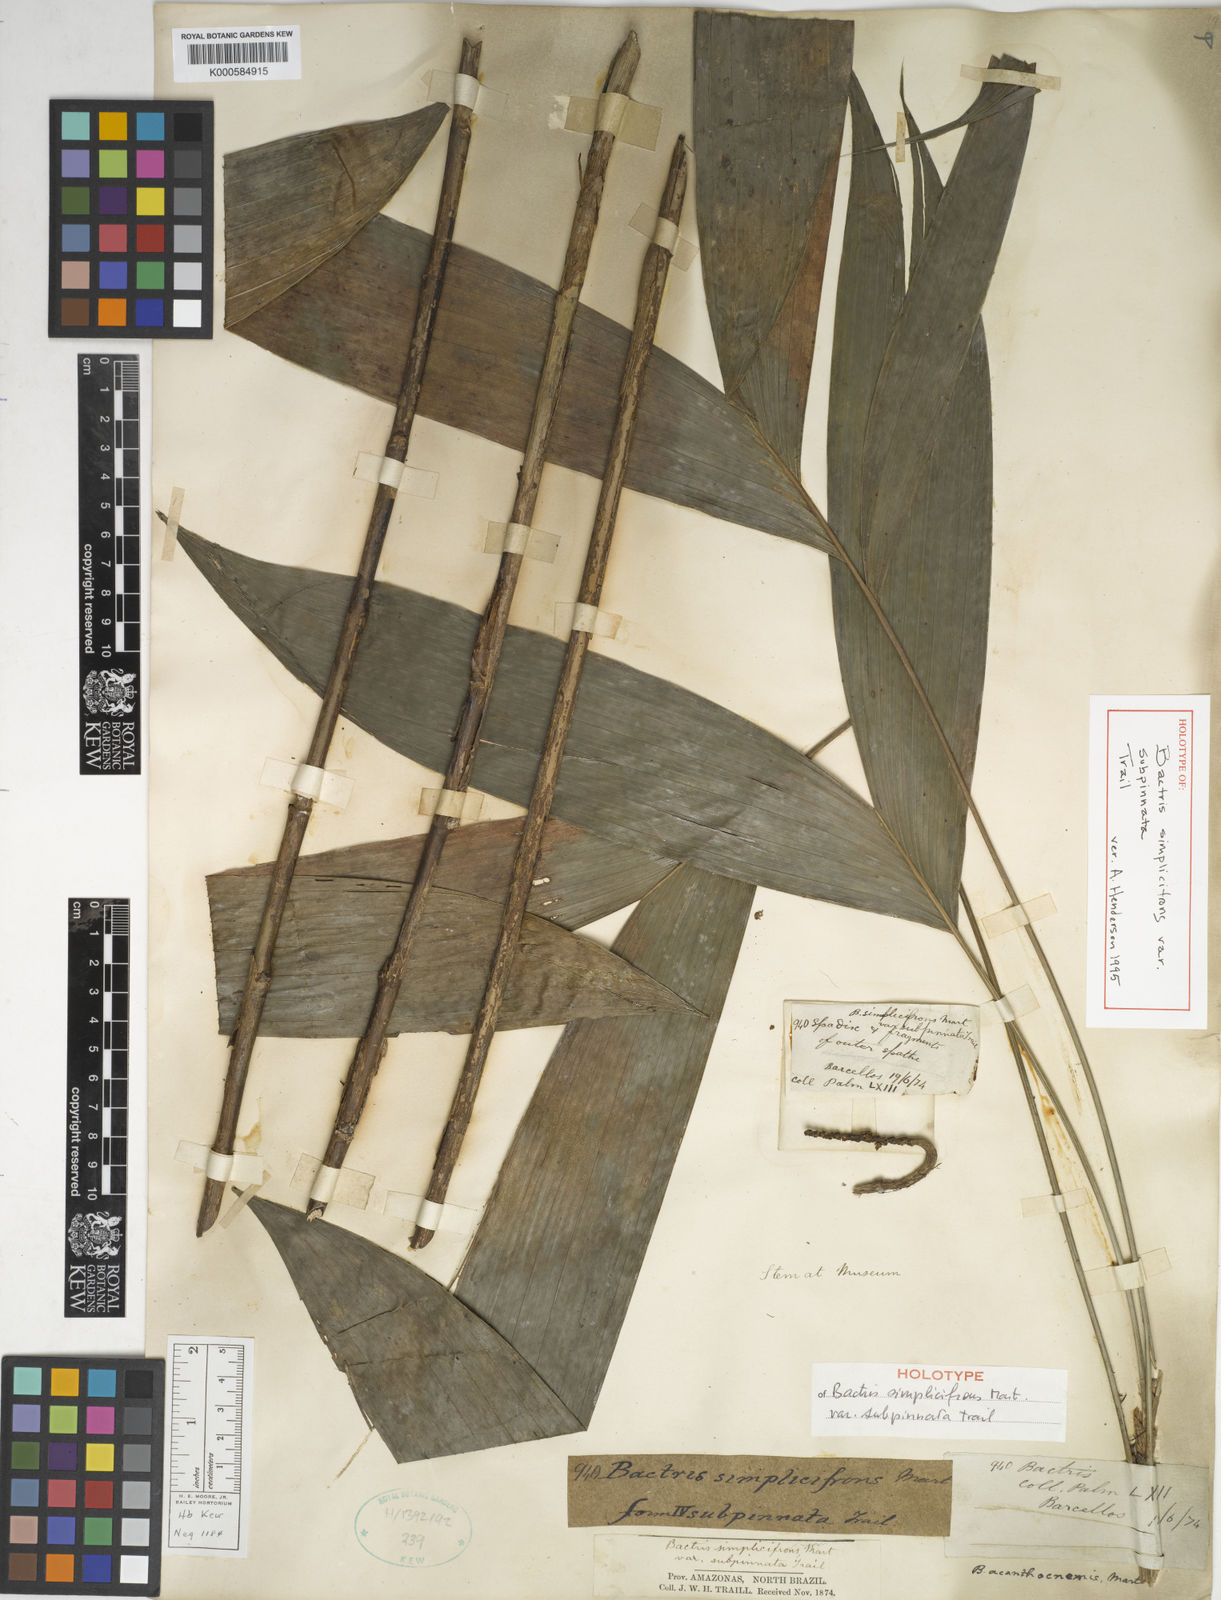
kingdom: Plantae
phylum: Tracheophyta
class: Liliopsida
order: Arecales
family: Arecaceae
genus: Bactris
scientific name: Bactris simplicifrons
